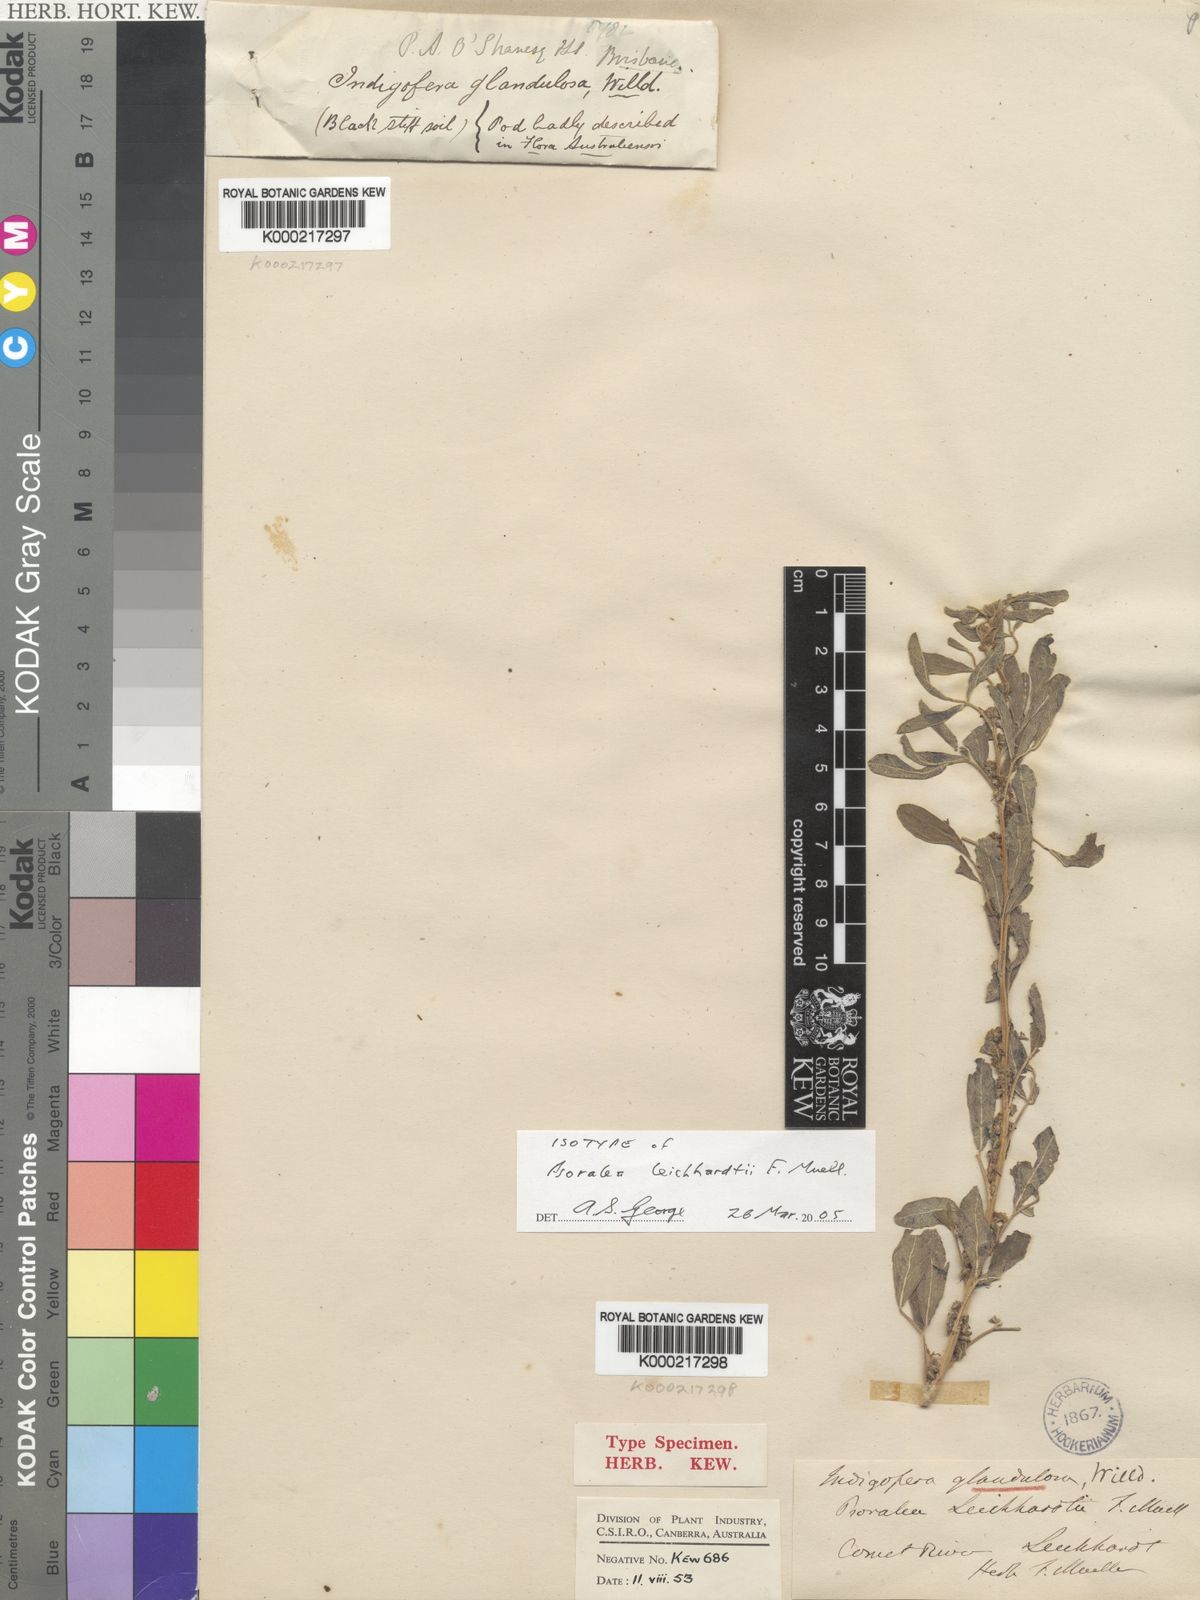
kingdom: Plantae
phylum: Tracheophyta
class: Magnoliopsida
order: Fabales
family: Fabaceae
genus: Indigofera
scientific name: Indigofera glandulosa
